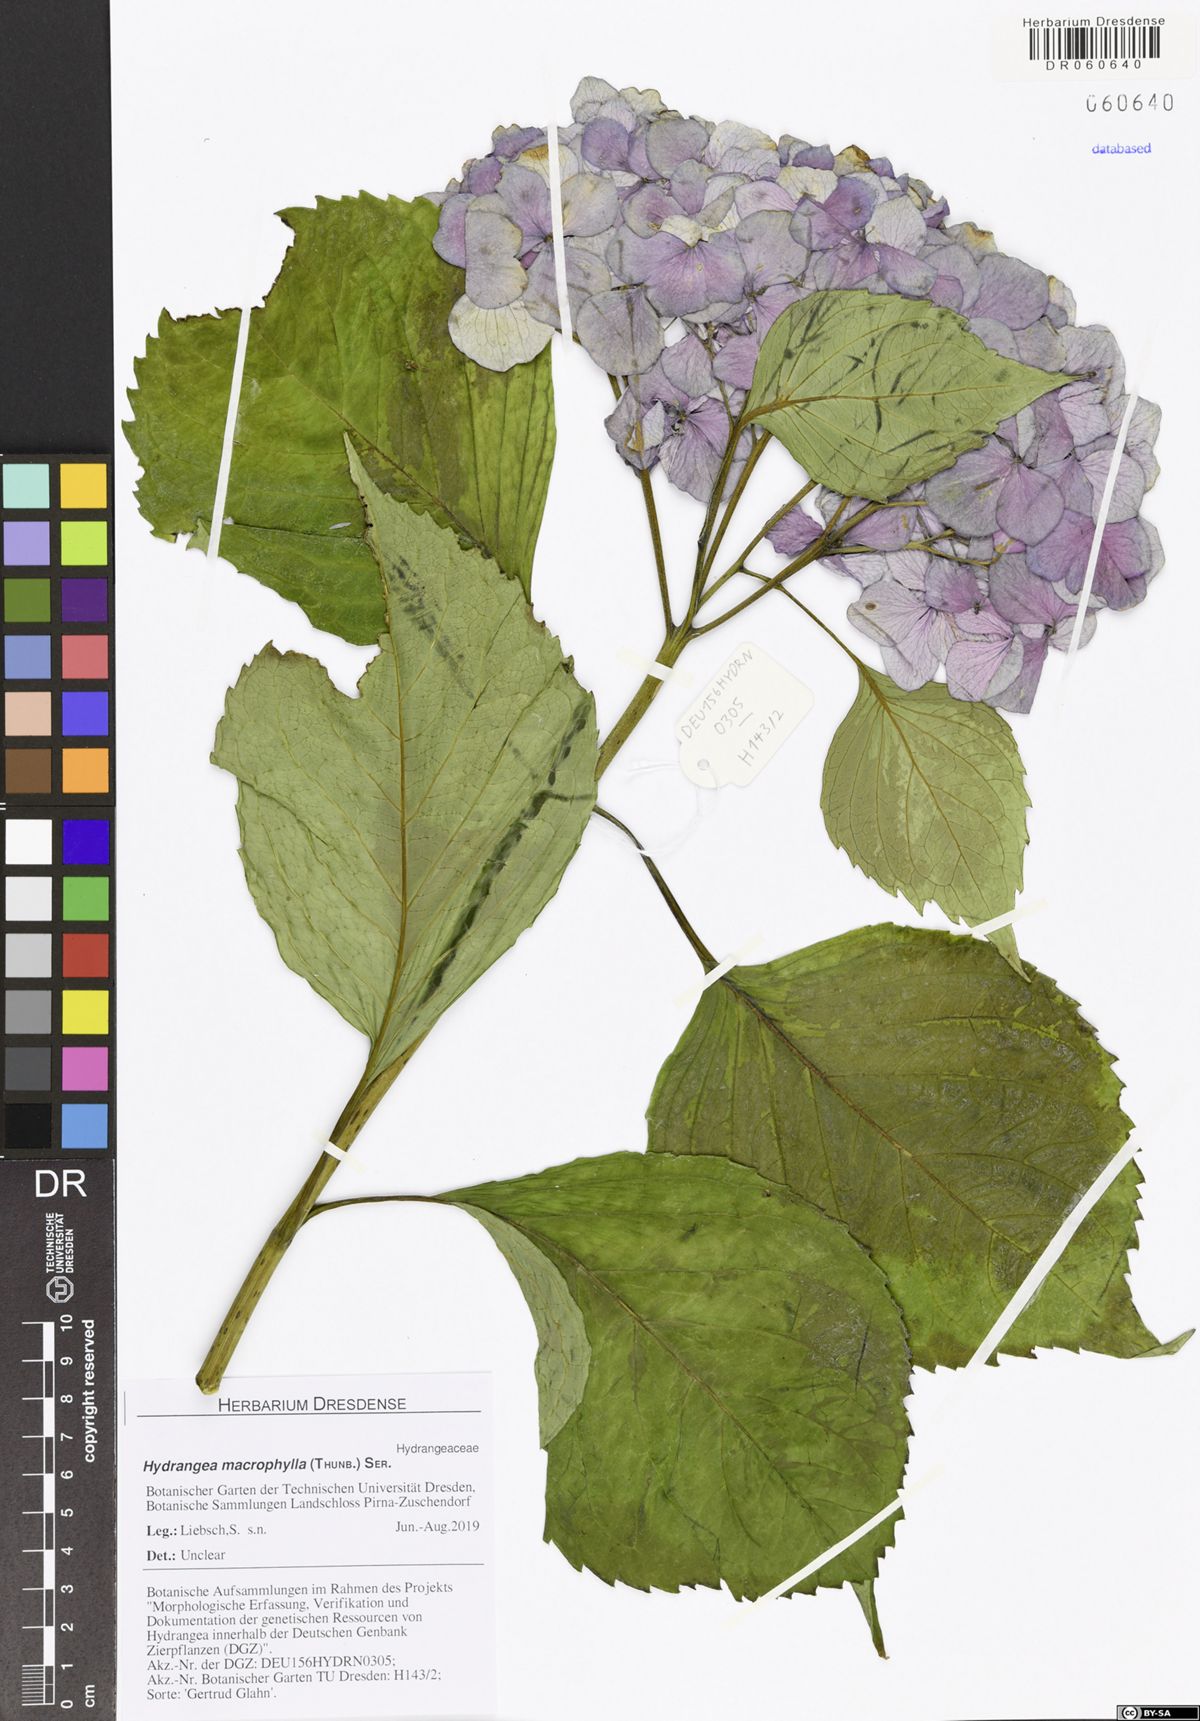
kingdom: Plantae
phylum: Tracheophyta
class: Magnoliopsida
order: Cornales
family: Hydrangeaceae
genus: Hydrangea
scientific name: Hydrangea macrophylla
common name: Hydrangea
